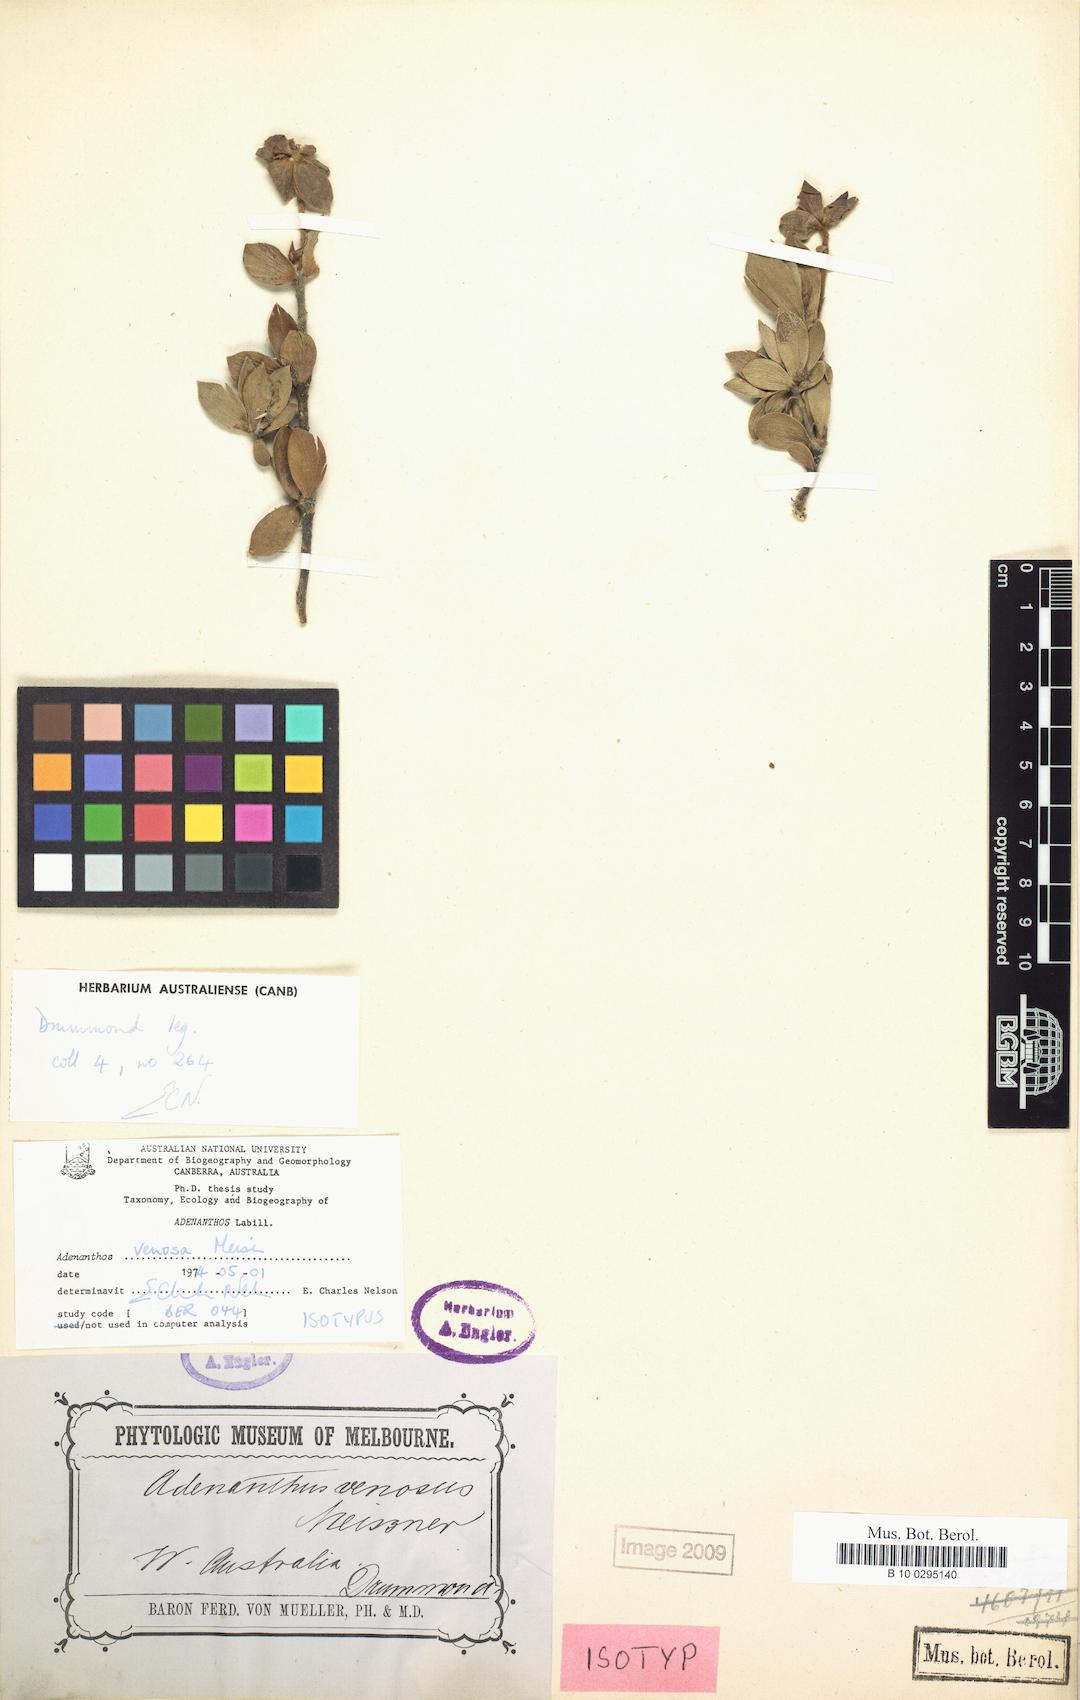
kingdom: Plantae
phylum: Tracheophyta
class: Magnoliopsida
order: Proteales
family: Proteaceae
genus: Adenanthos
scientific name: Adenanthos venosus
